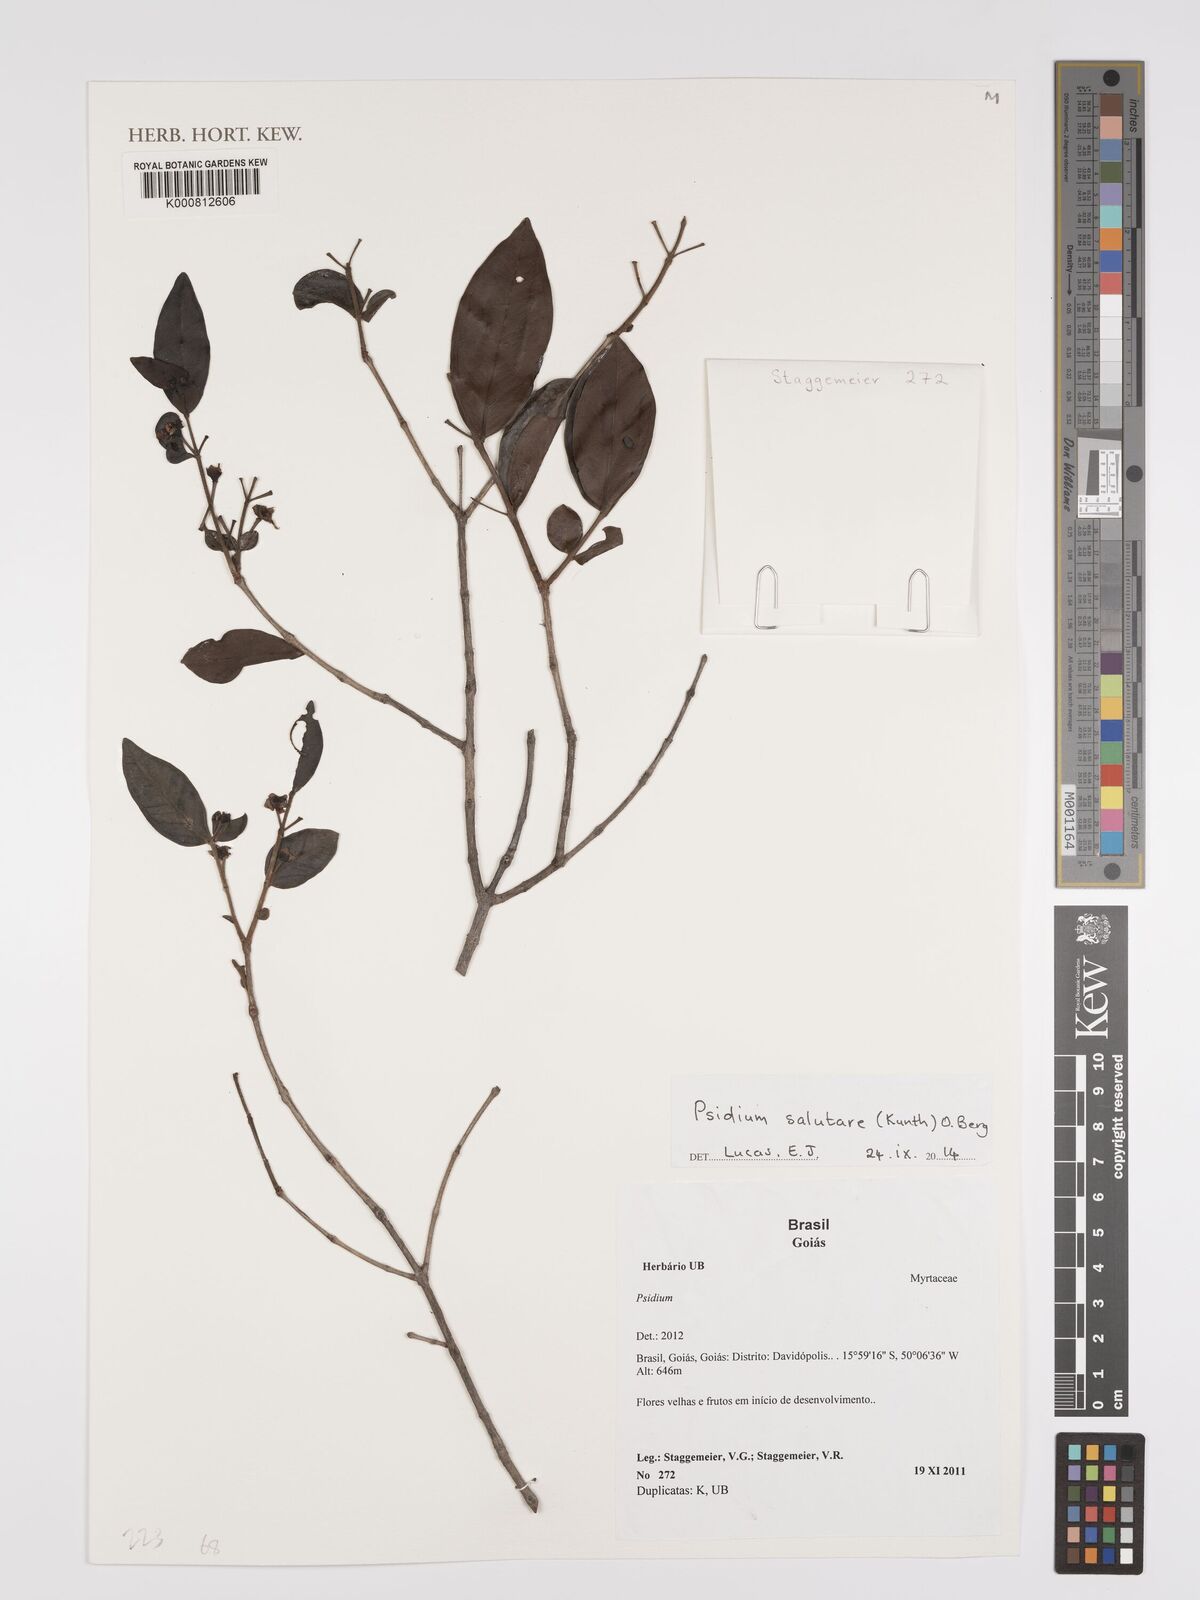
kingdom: Plantae
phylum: Tracheophyta
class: Magnoliopsida
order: Myrtales
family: Myrtaceae
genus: Psidium
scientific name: Psidium salutare
